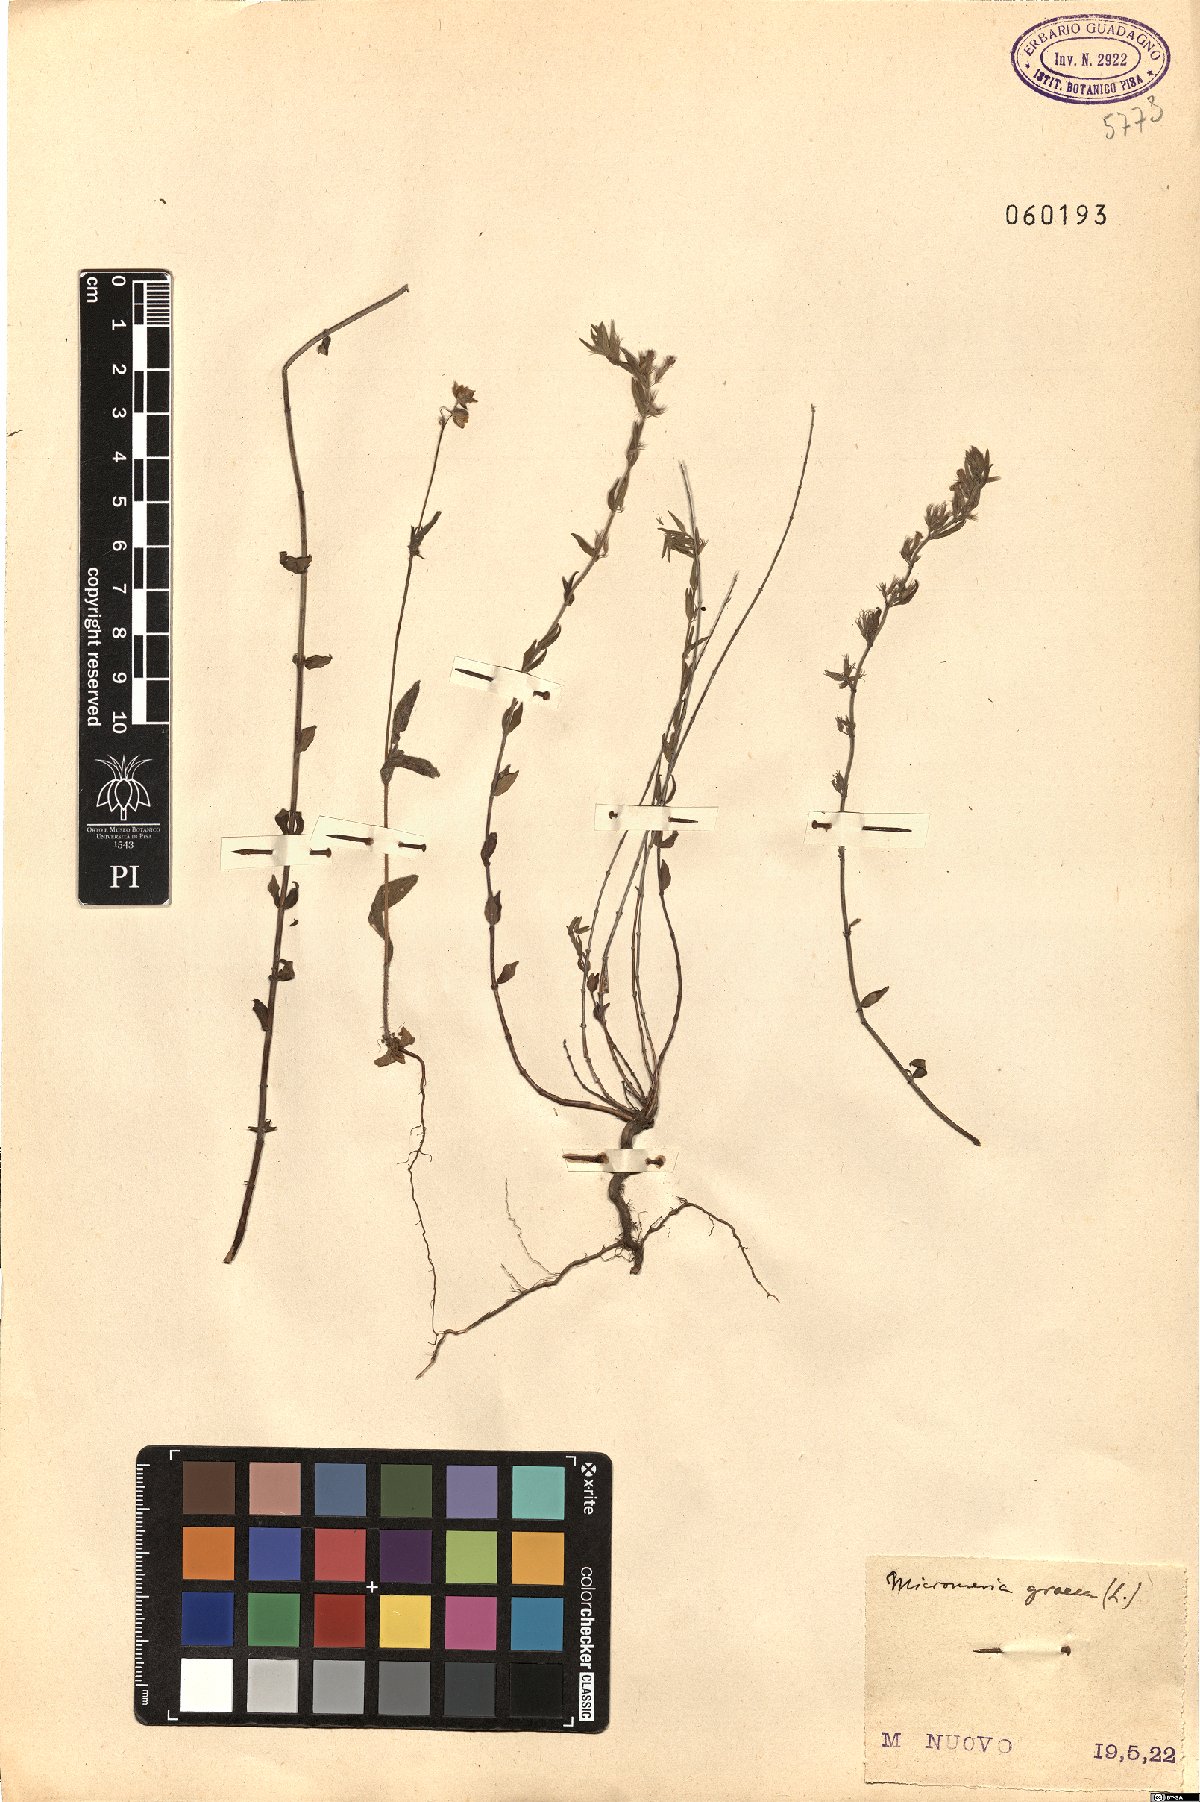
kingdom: Plantae
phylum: Tracheophyta
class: Magnoliopsida
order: Lamiales
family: Lamiaceae
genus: Micromeria
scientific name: Micromeria graeca
